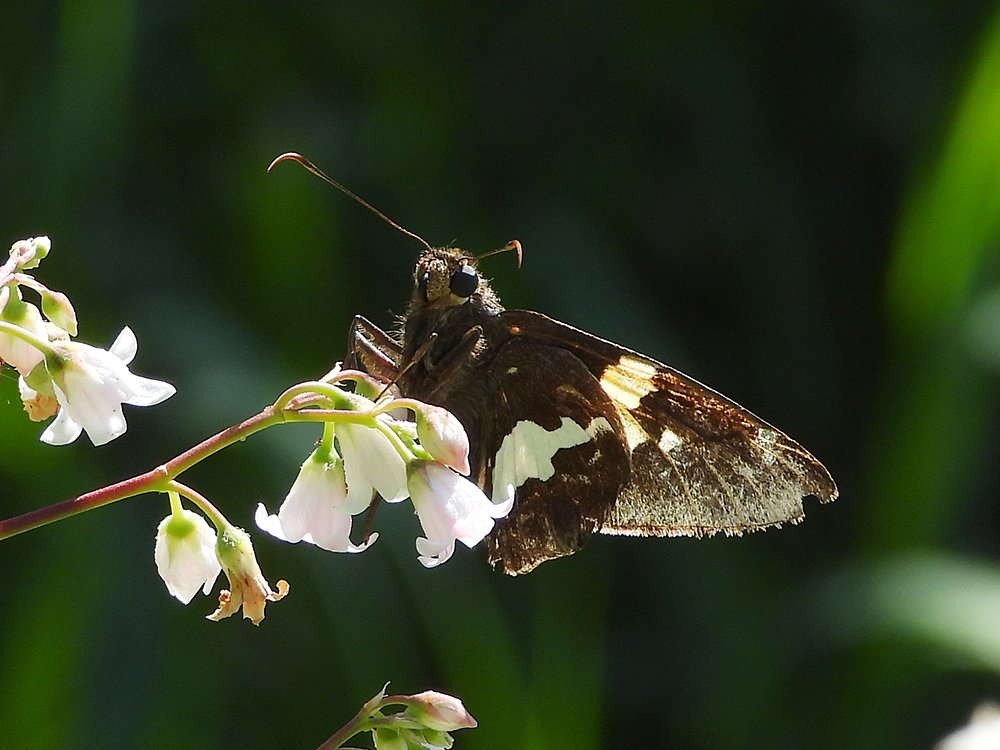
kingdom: Animalia
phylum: Arthropoda
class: Insecta
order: Lepidoptera
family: Hesperiidae
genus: Epargyreus
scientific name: Epargyreus clarus
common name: Silver-spotted Skipper
